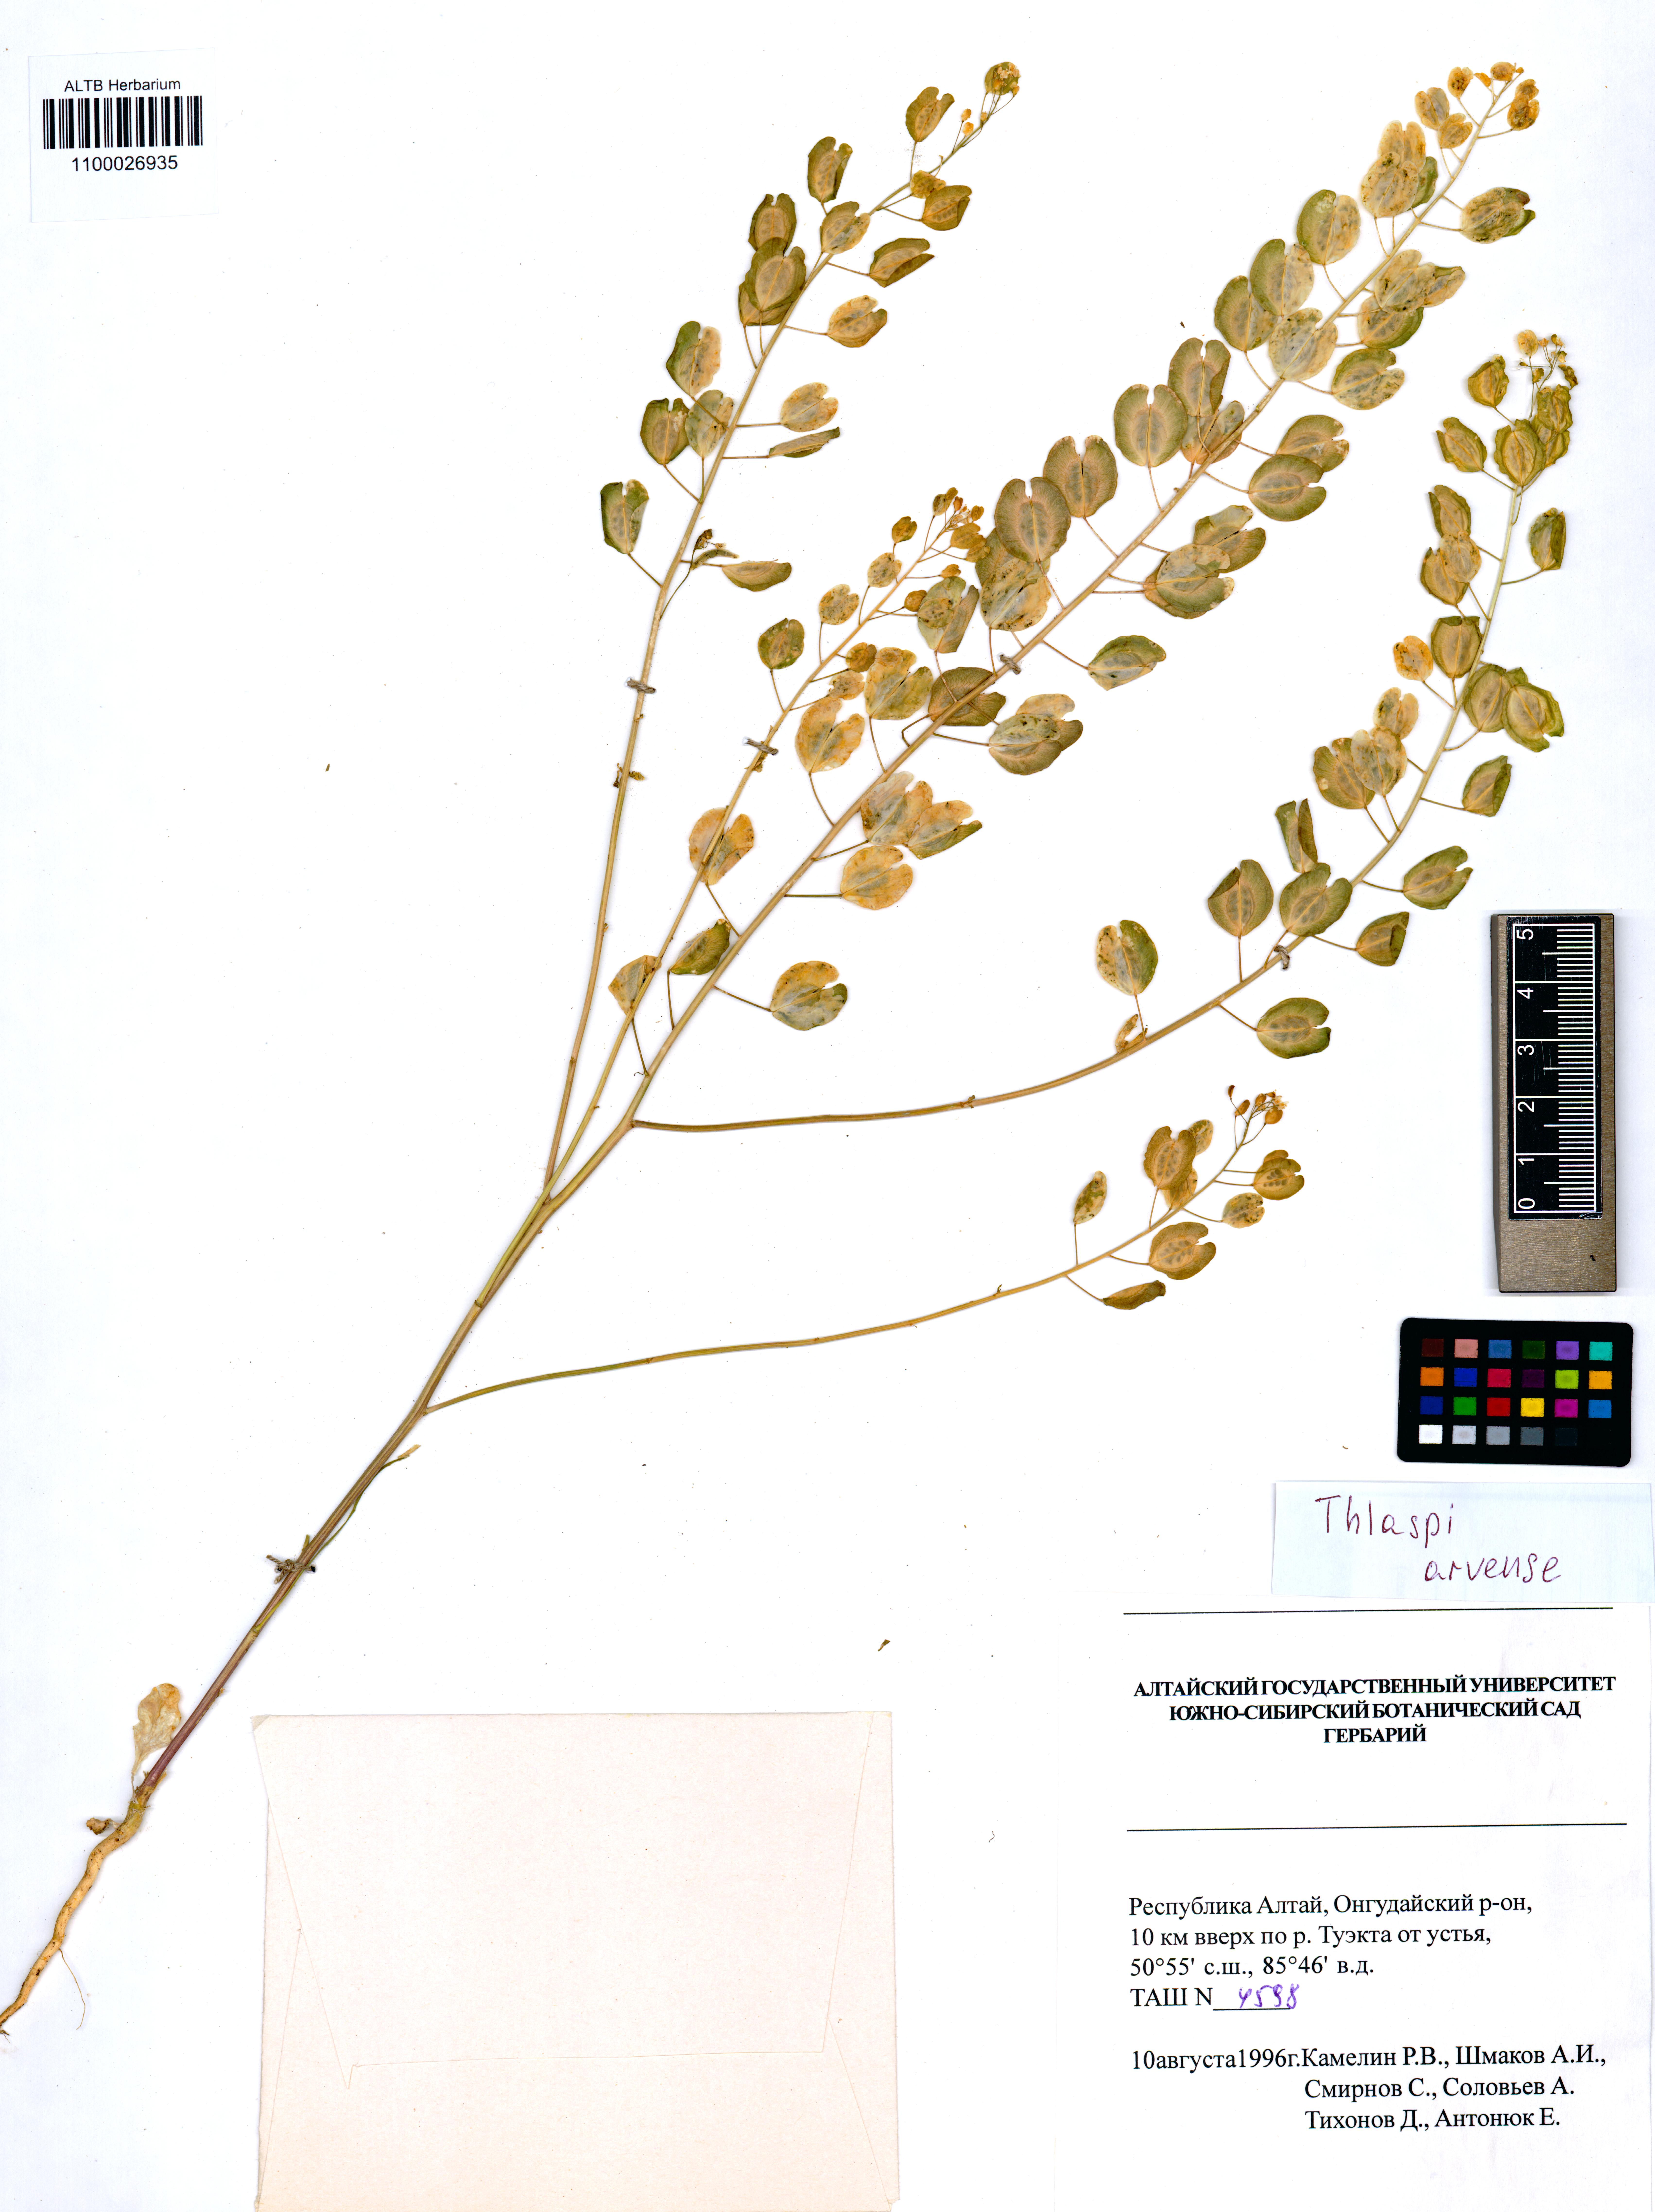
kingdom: Plantae
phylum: Tracheophyta
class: Magnoliopsida
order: Brassicales
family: Brassicaceae
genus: Thlaspi
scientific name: Thlaspi arvense
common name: Field pennycress
